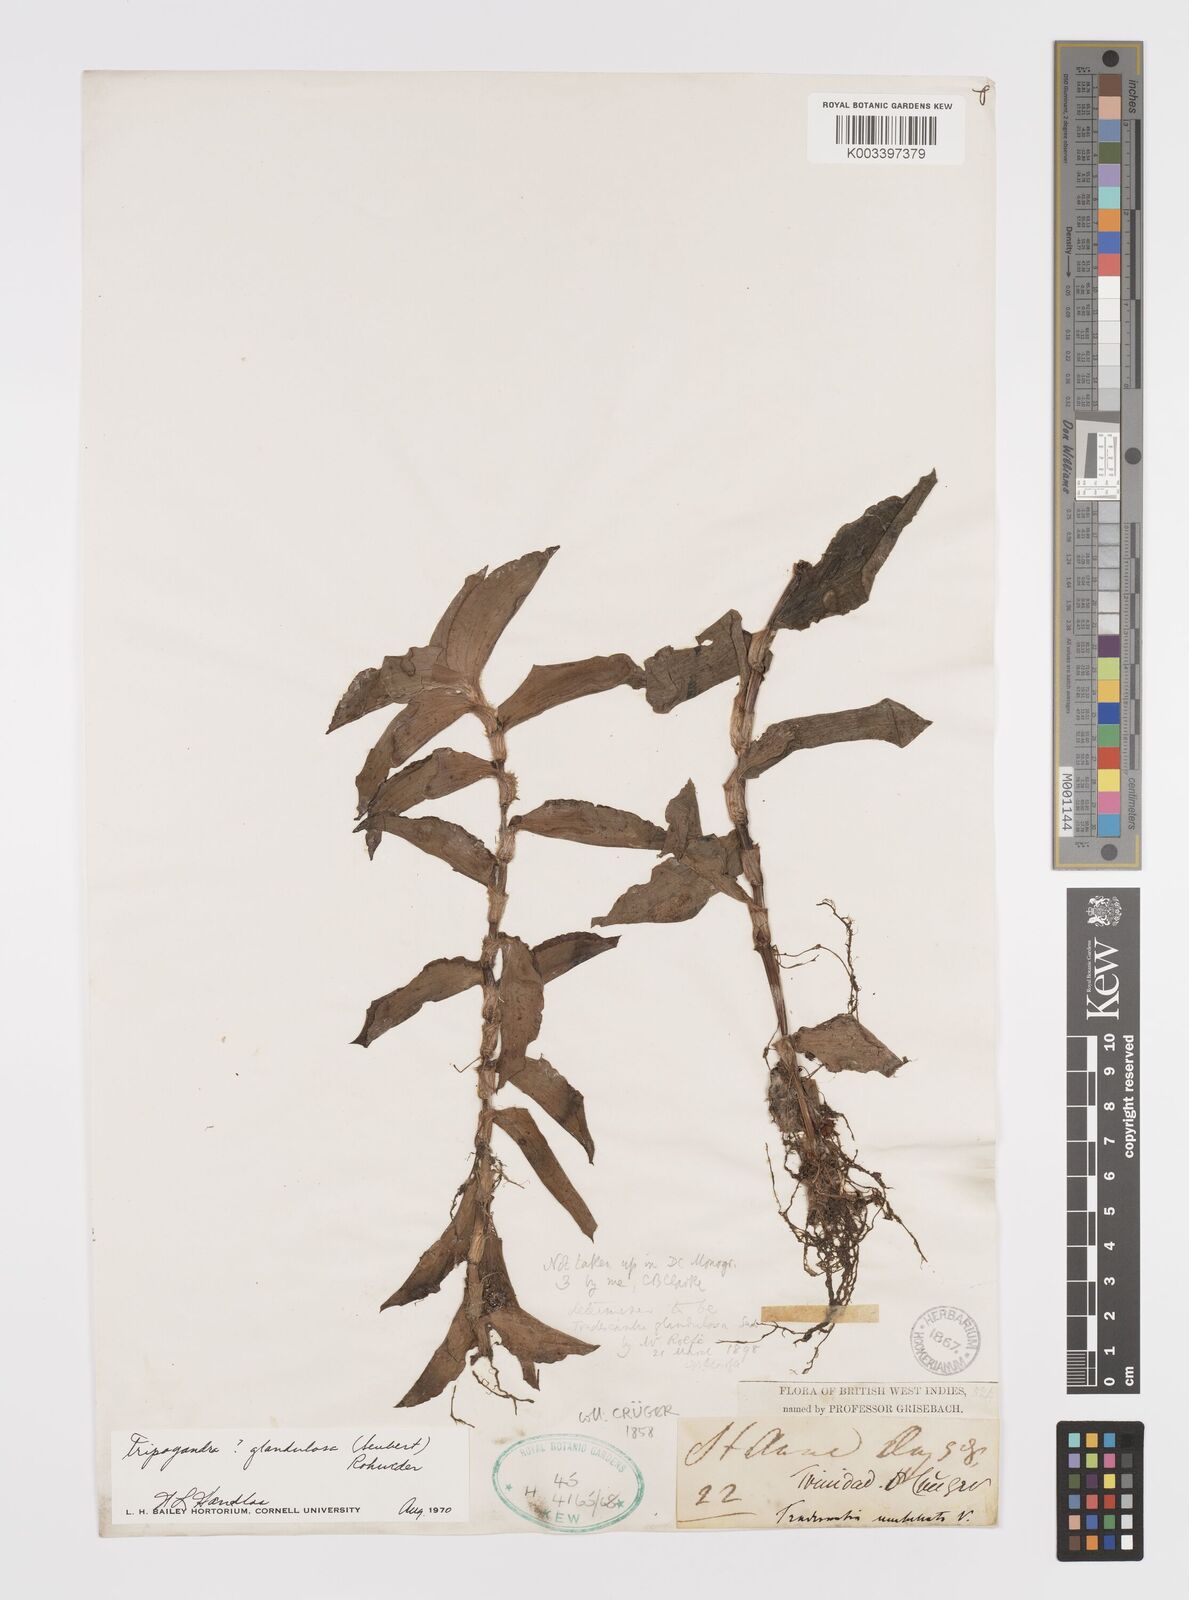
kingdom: Plantae
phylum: Tracheophyta
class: Liliopsida
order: Commelinales
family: Commelinaceae
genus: Callisia
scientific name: Callisia glandulosa
